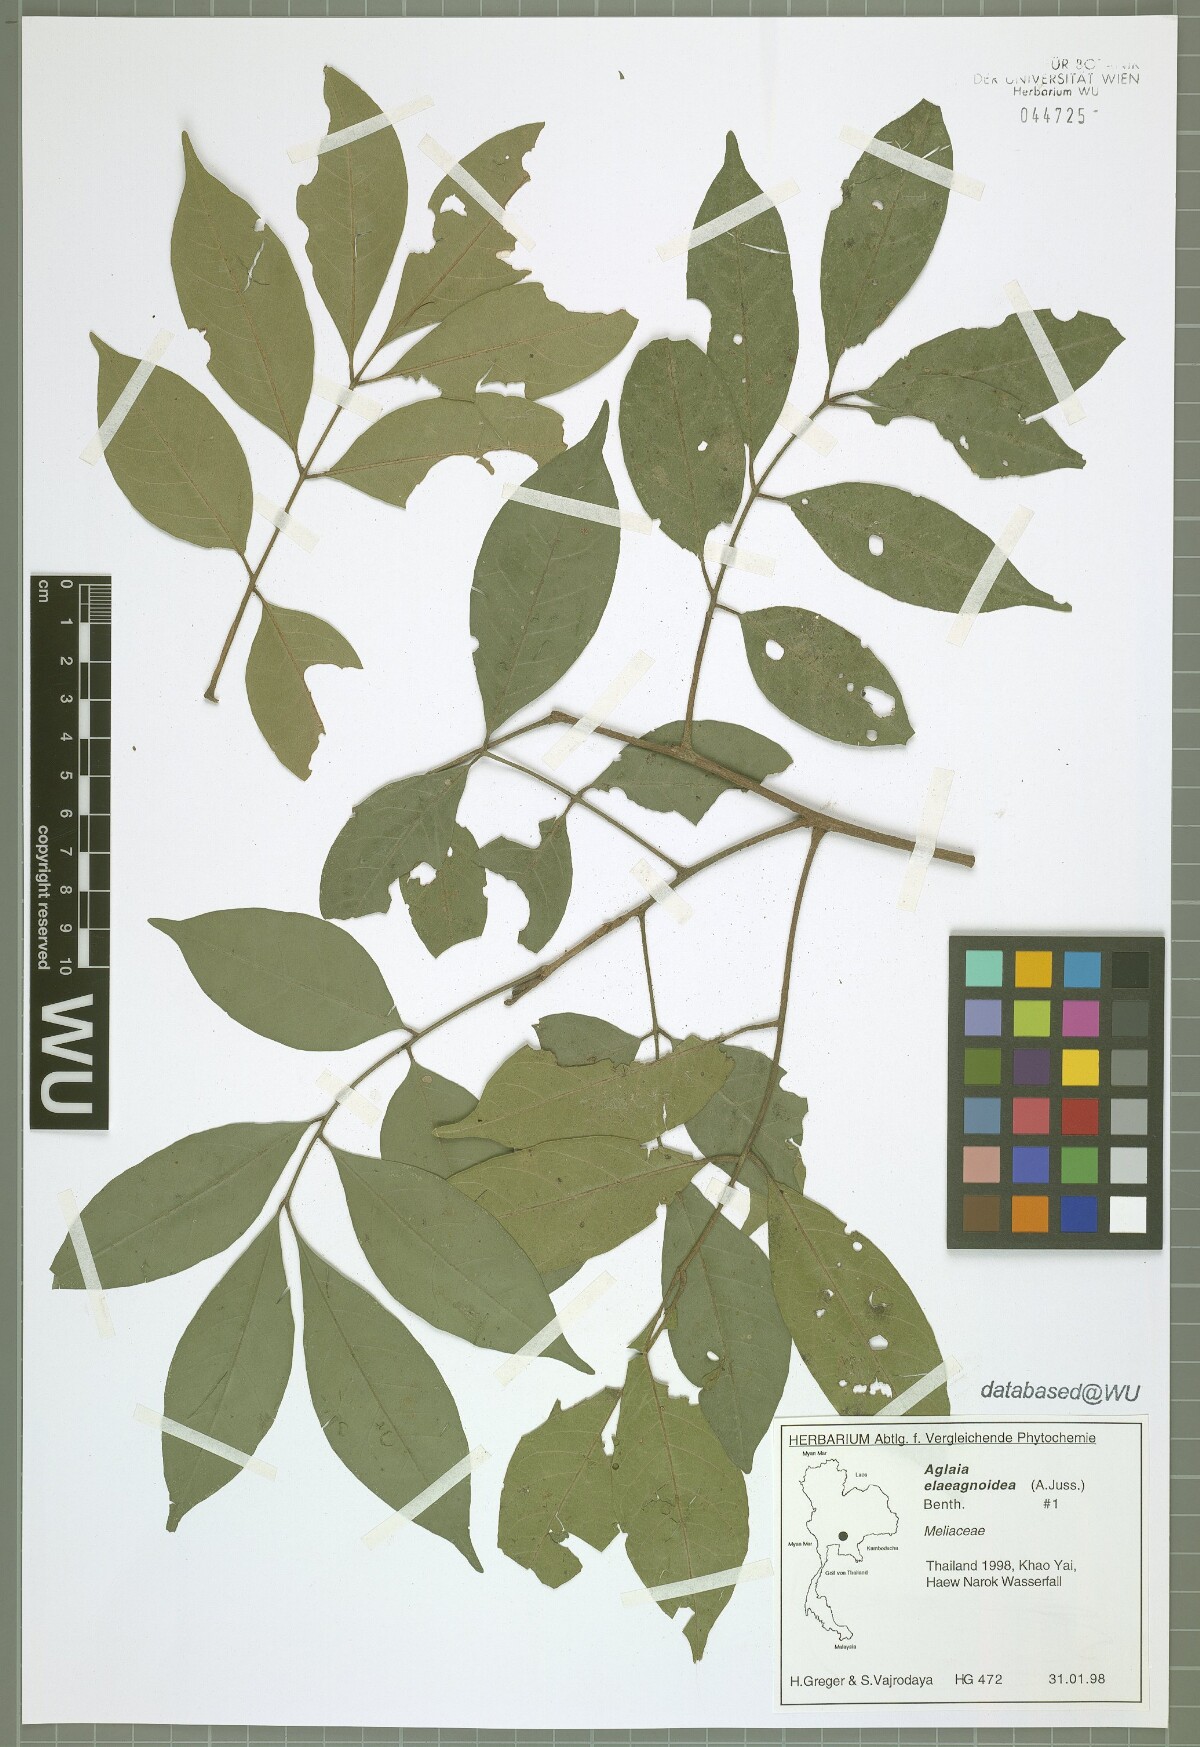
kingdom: Plantae
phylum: Tracheophyta
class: Magnoliopsida
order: Sapindales
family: Meliaceae
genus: Aglaia
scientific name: Aglaia elaeagnoidea
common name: Droopyleaf
